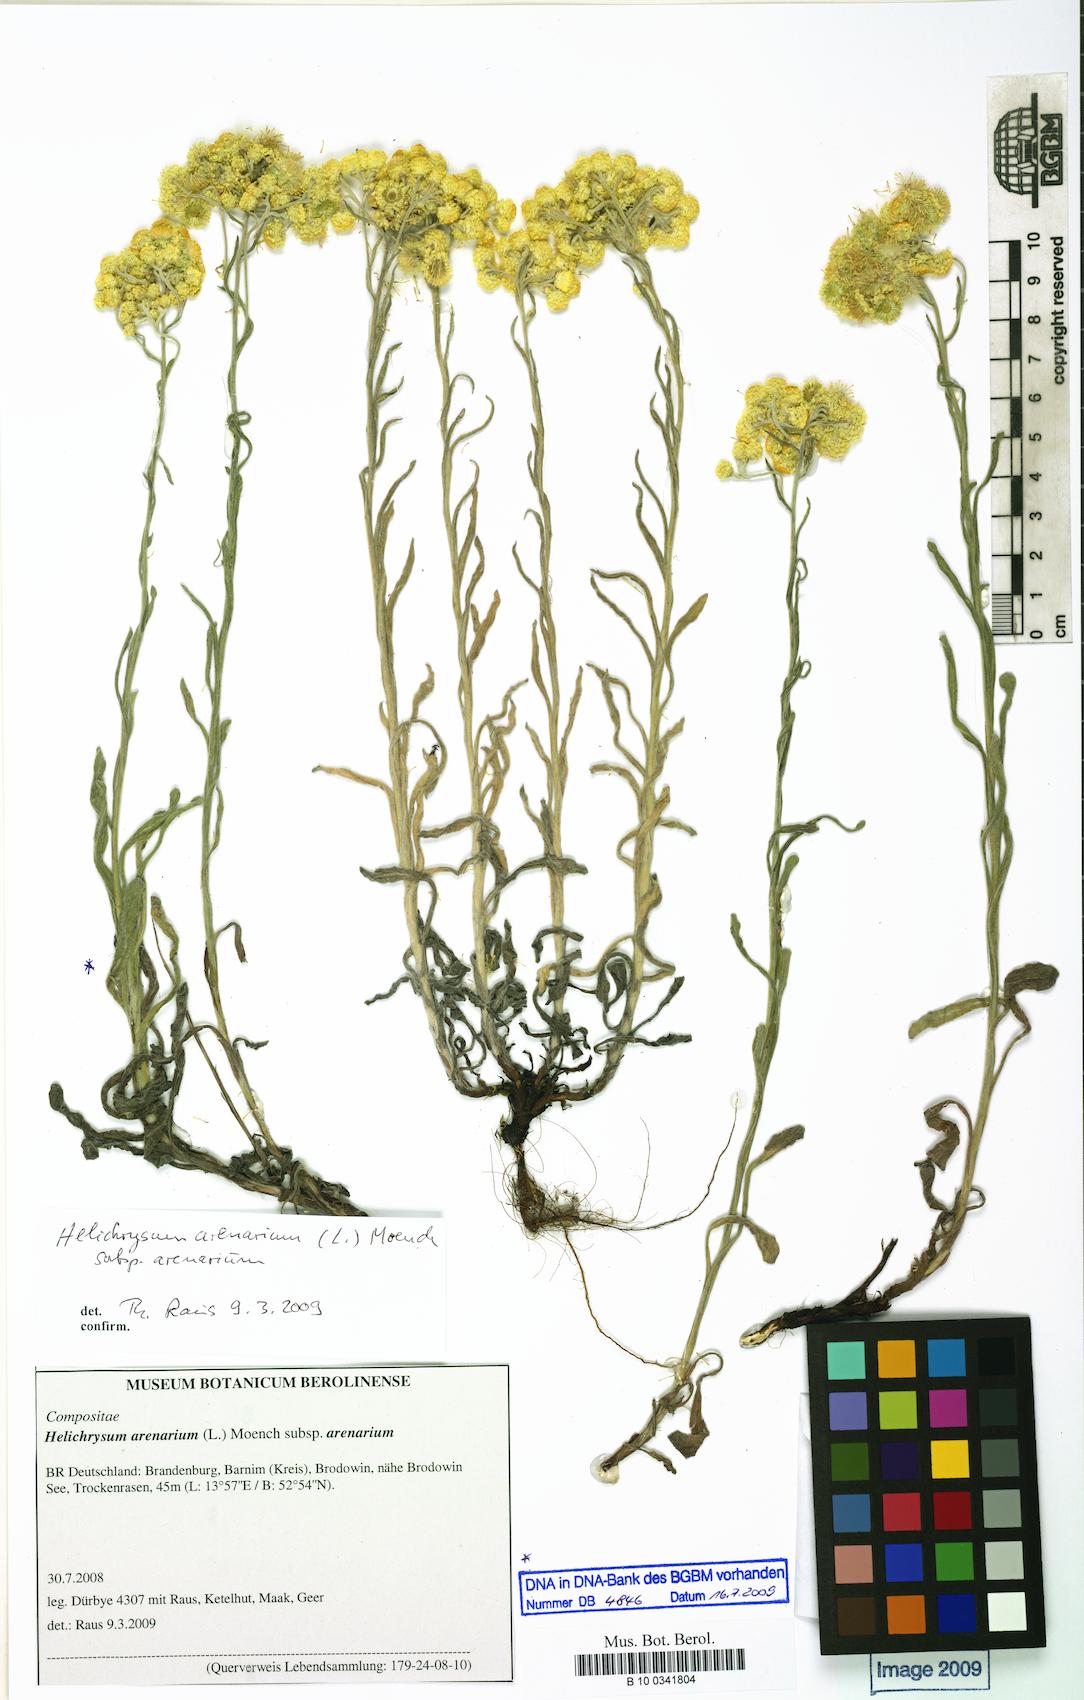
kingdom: Plantae
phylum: Tracheophyta
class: Magnoliopsida
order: Asterales
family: Asteraceae
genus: Helichrysum
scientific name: Helichrysum arenarium
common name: Strawflower
